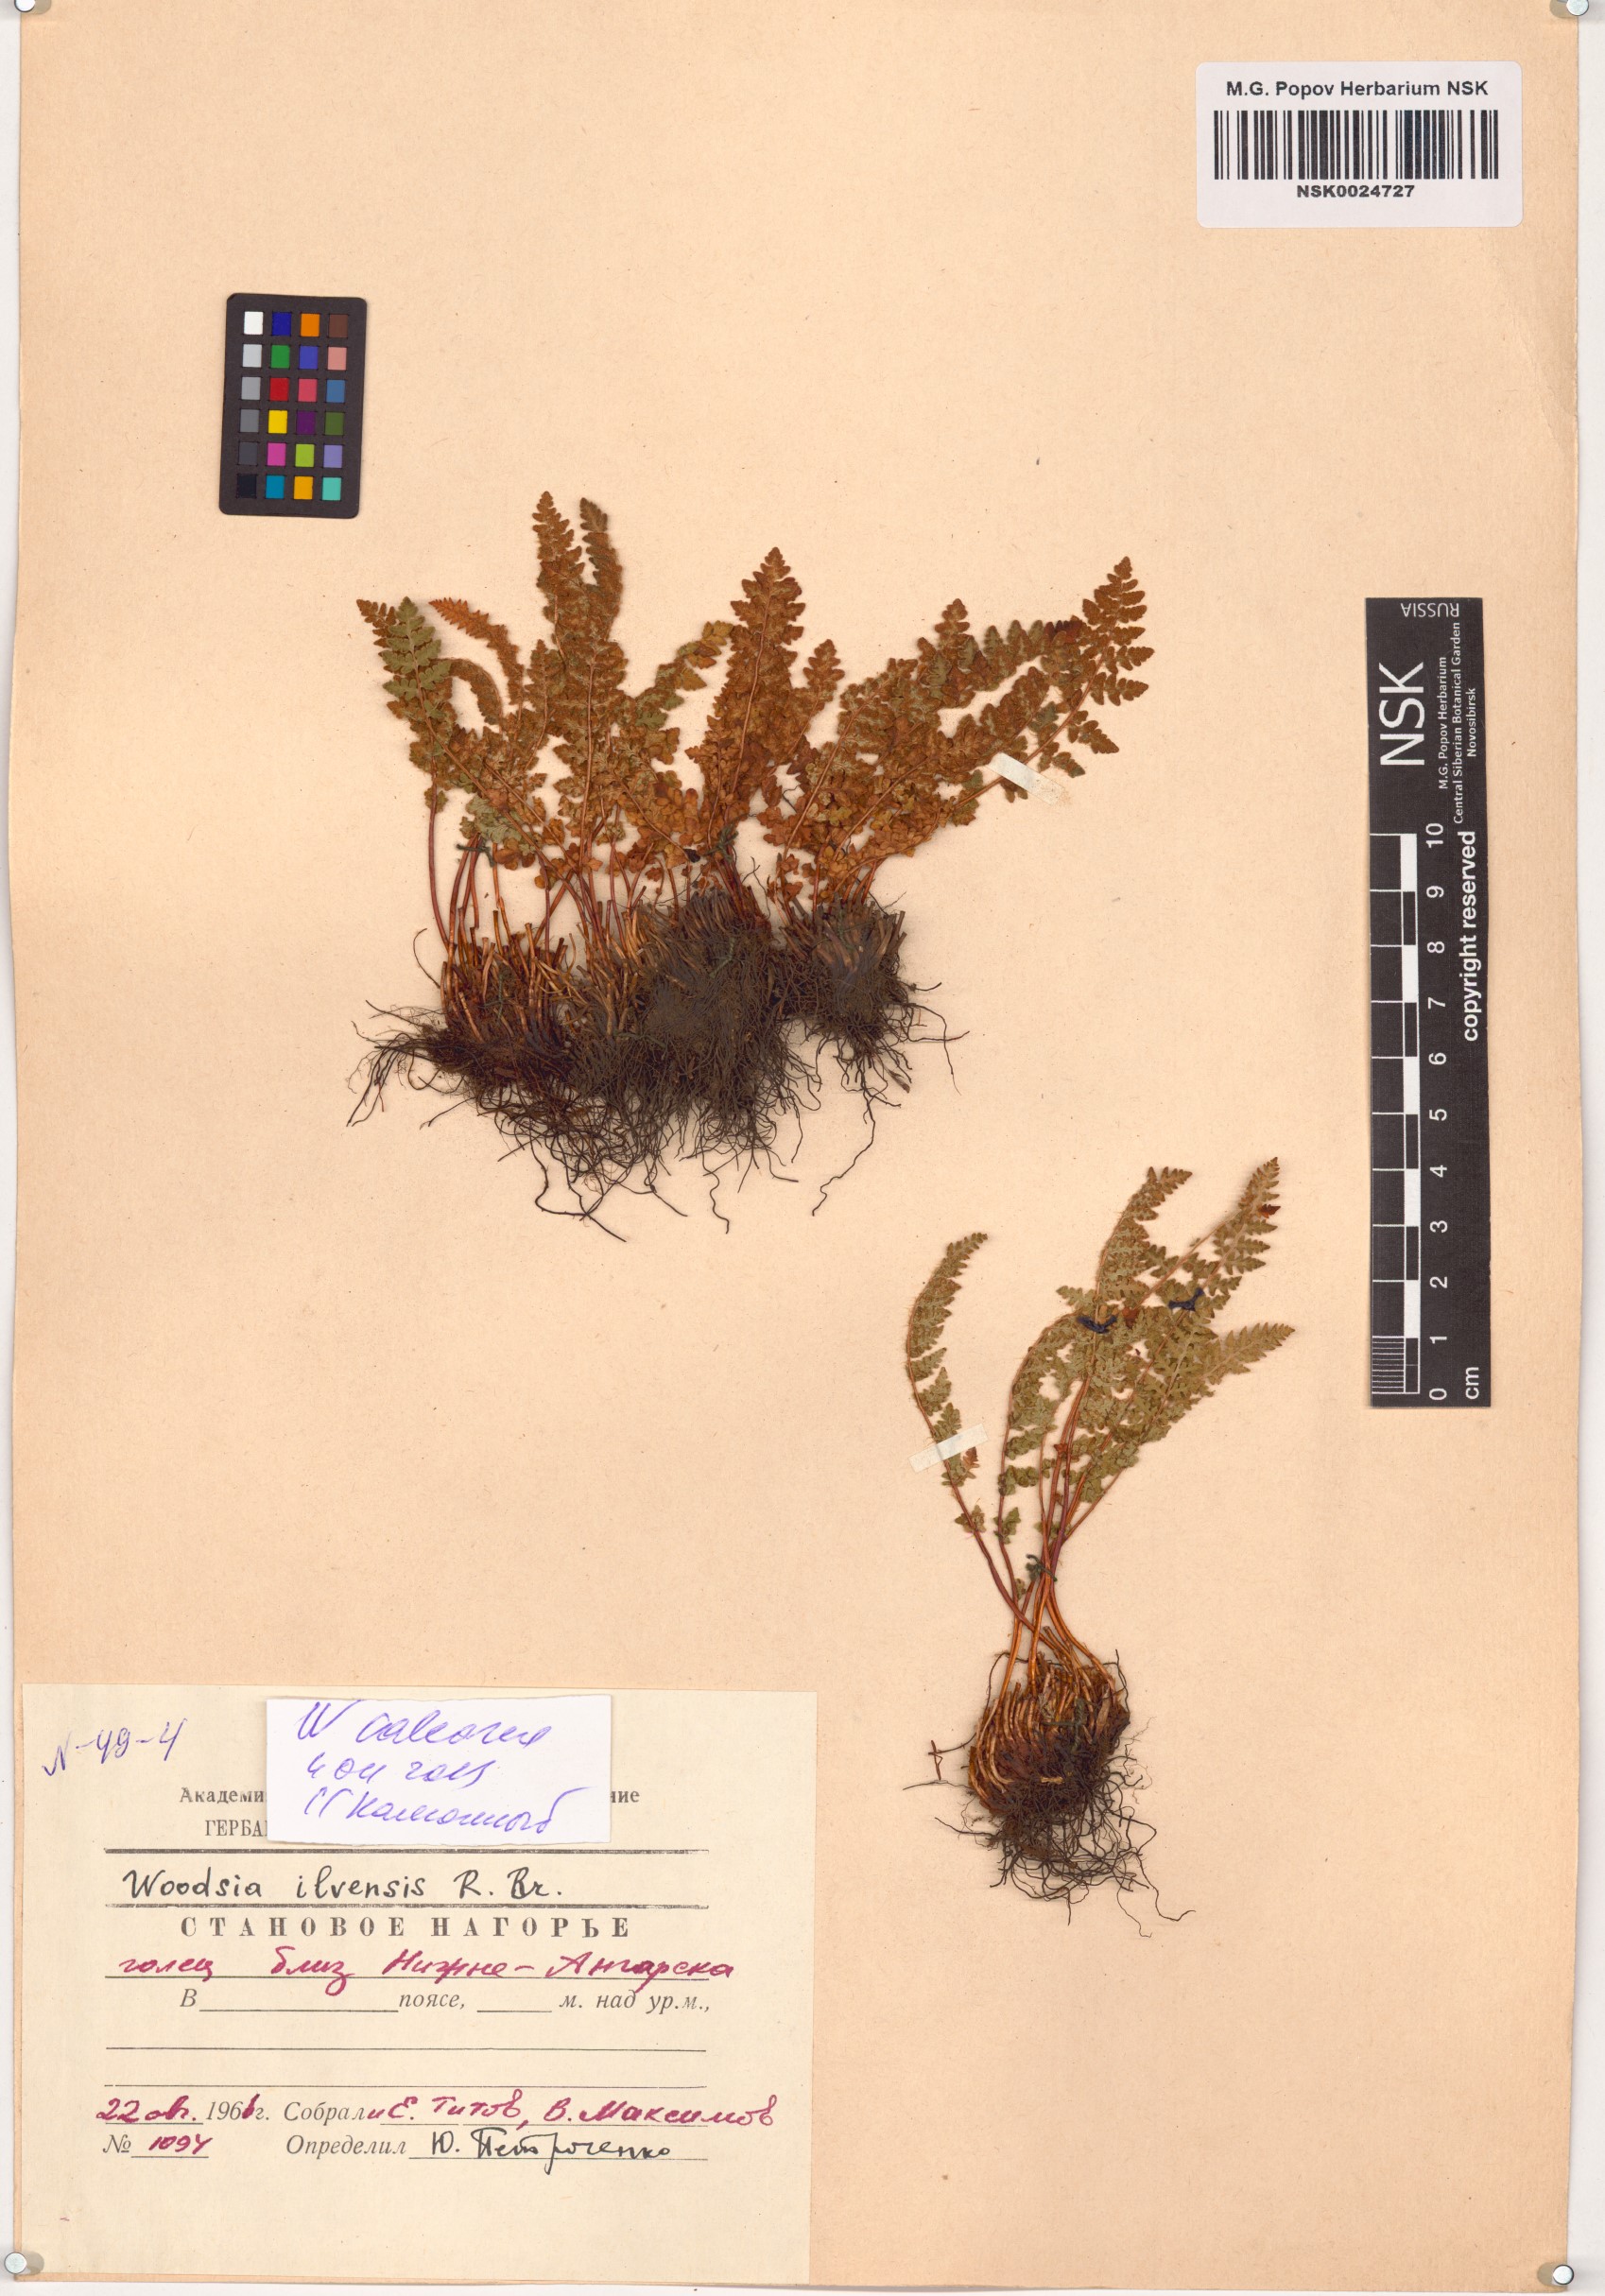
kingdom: Plantae
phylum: Tracheophyta
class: Polypodiopsida
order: Polypodiales
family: Woodsiaceae
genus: Woodsia
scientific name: Woodsia calcarea
